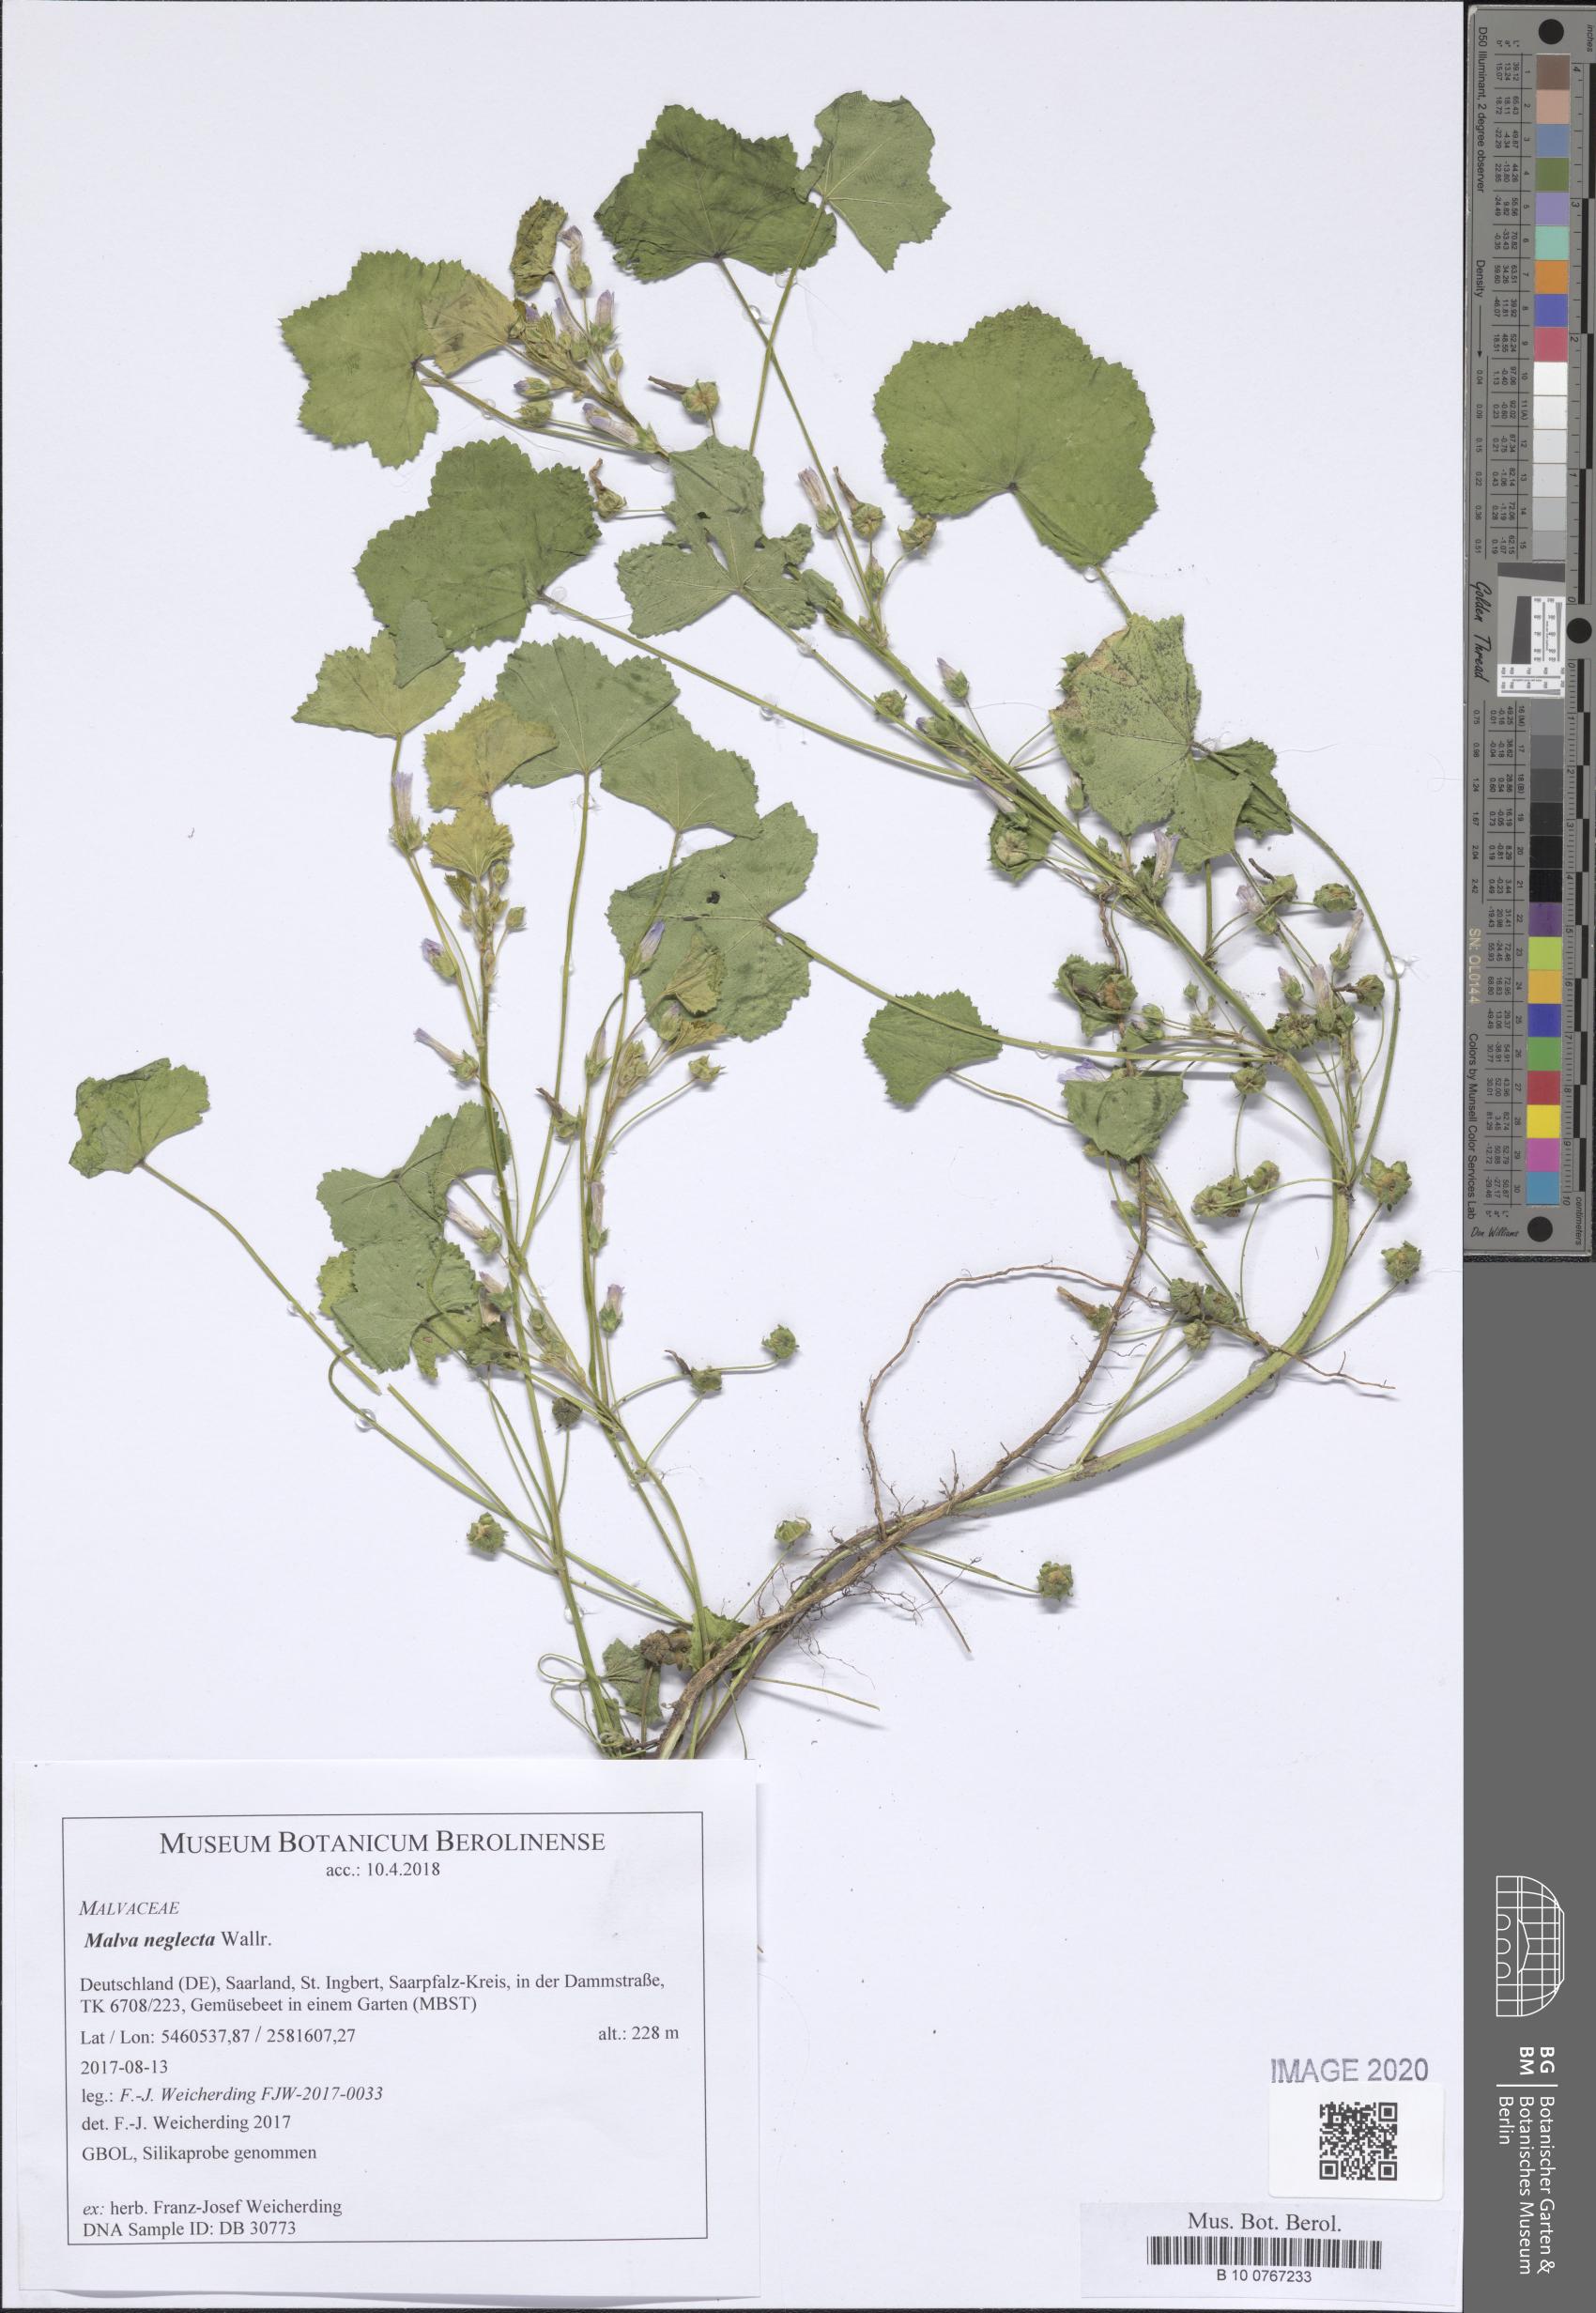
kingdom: Plantae
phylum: Tracheophyta
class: Magnoliopsida
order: Malvales
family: Malvaceae
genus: Malva
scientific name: Malva neglecta
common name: Common mallow
